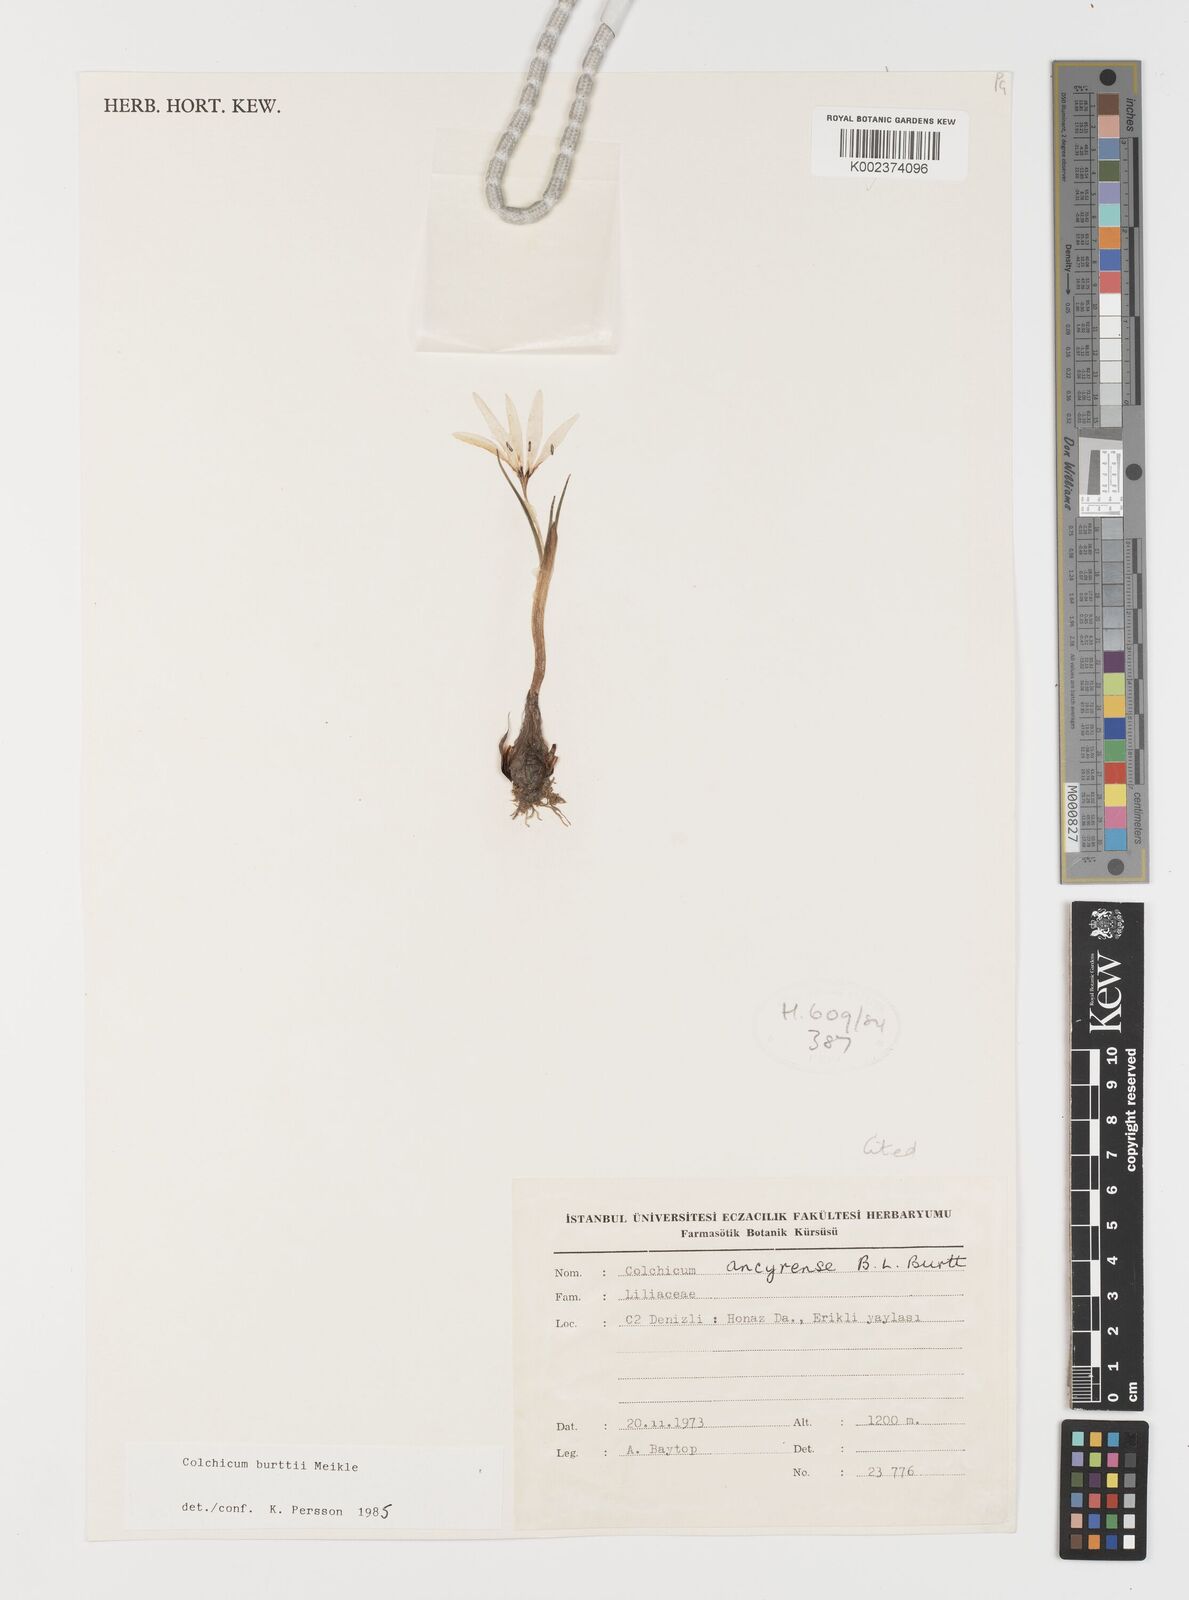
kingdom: Plantae
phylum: Tracheophyta
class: Liliopsida
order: Liliales
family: Colchicaceae
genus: Colchicum
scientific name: Colchicum burttii
